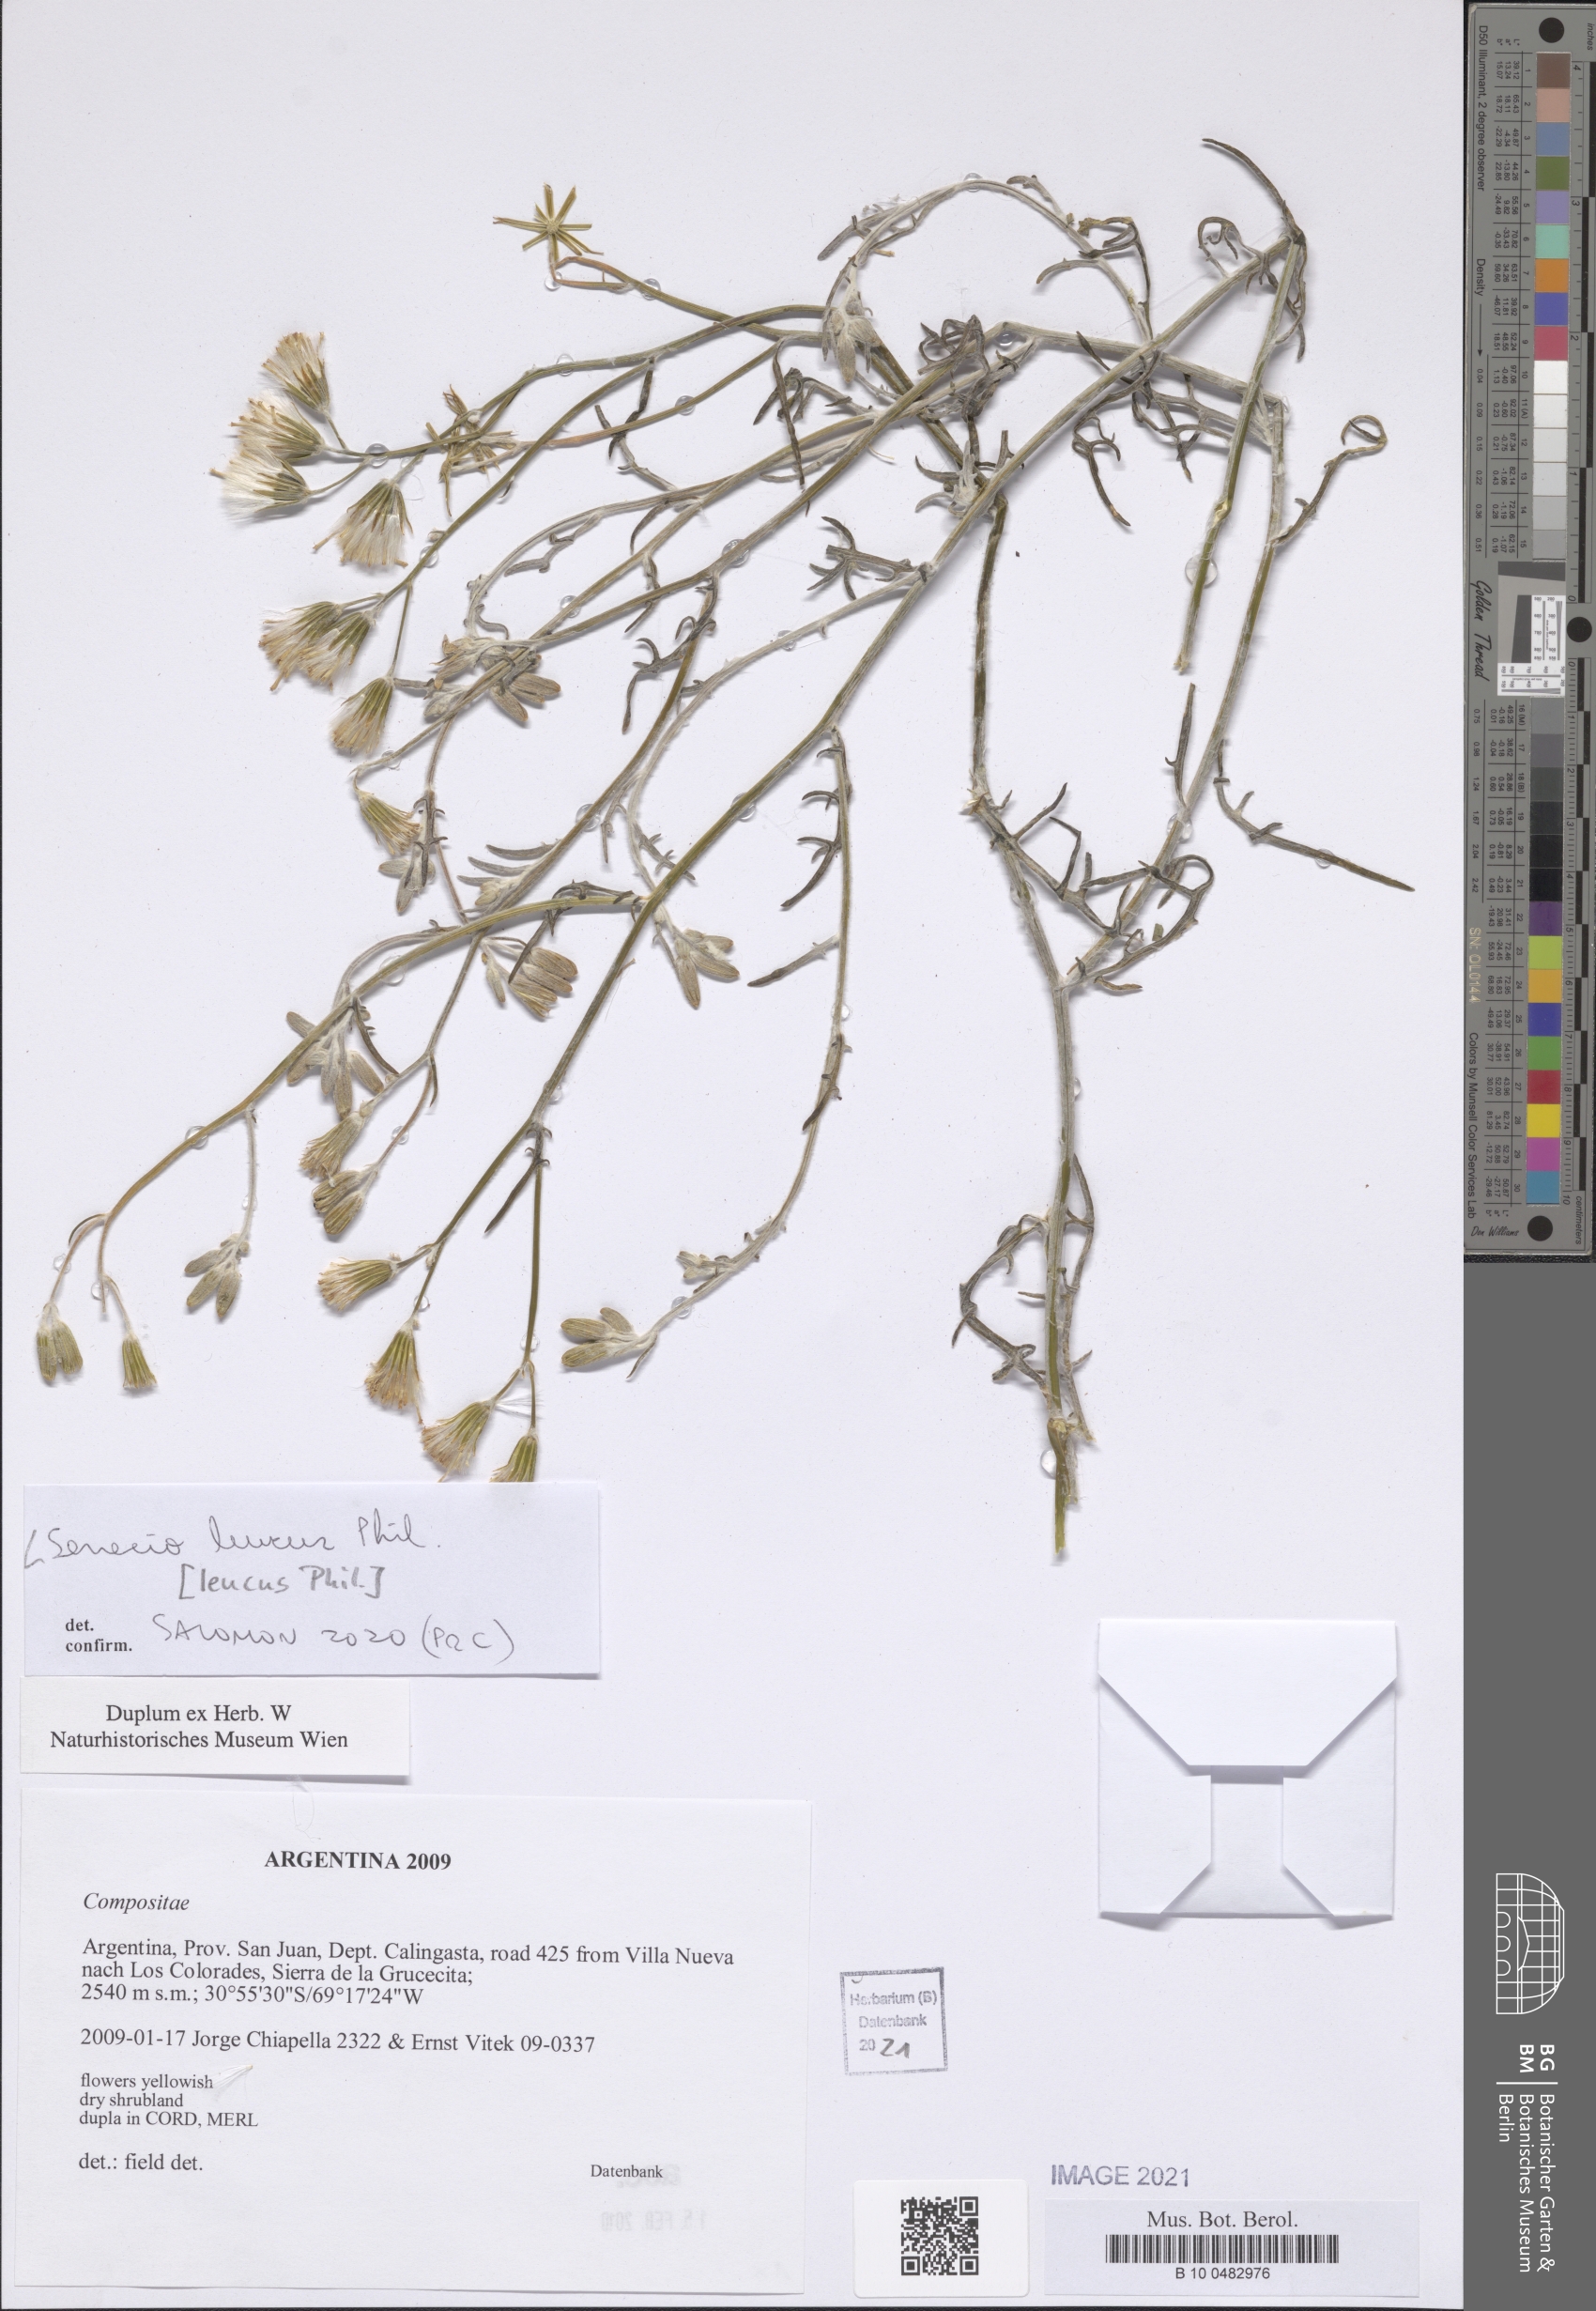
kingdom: Plantae
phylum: Tracheophyta
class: Magnoliopsida
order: Asterales
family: Asteraceae
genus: Senecio
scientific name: Senecio leucus
